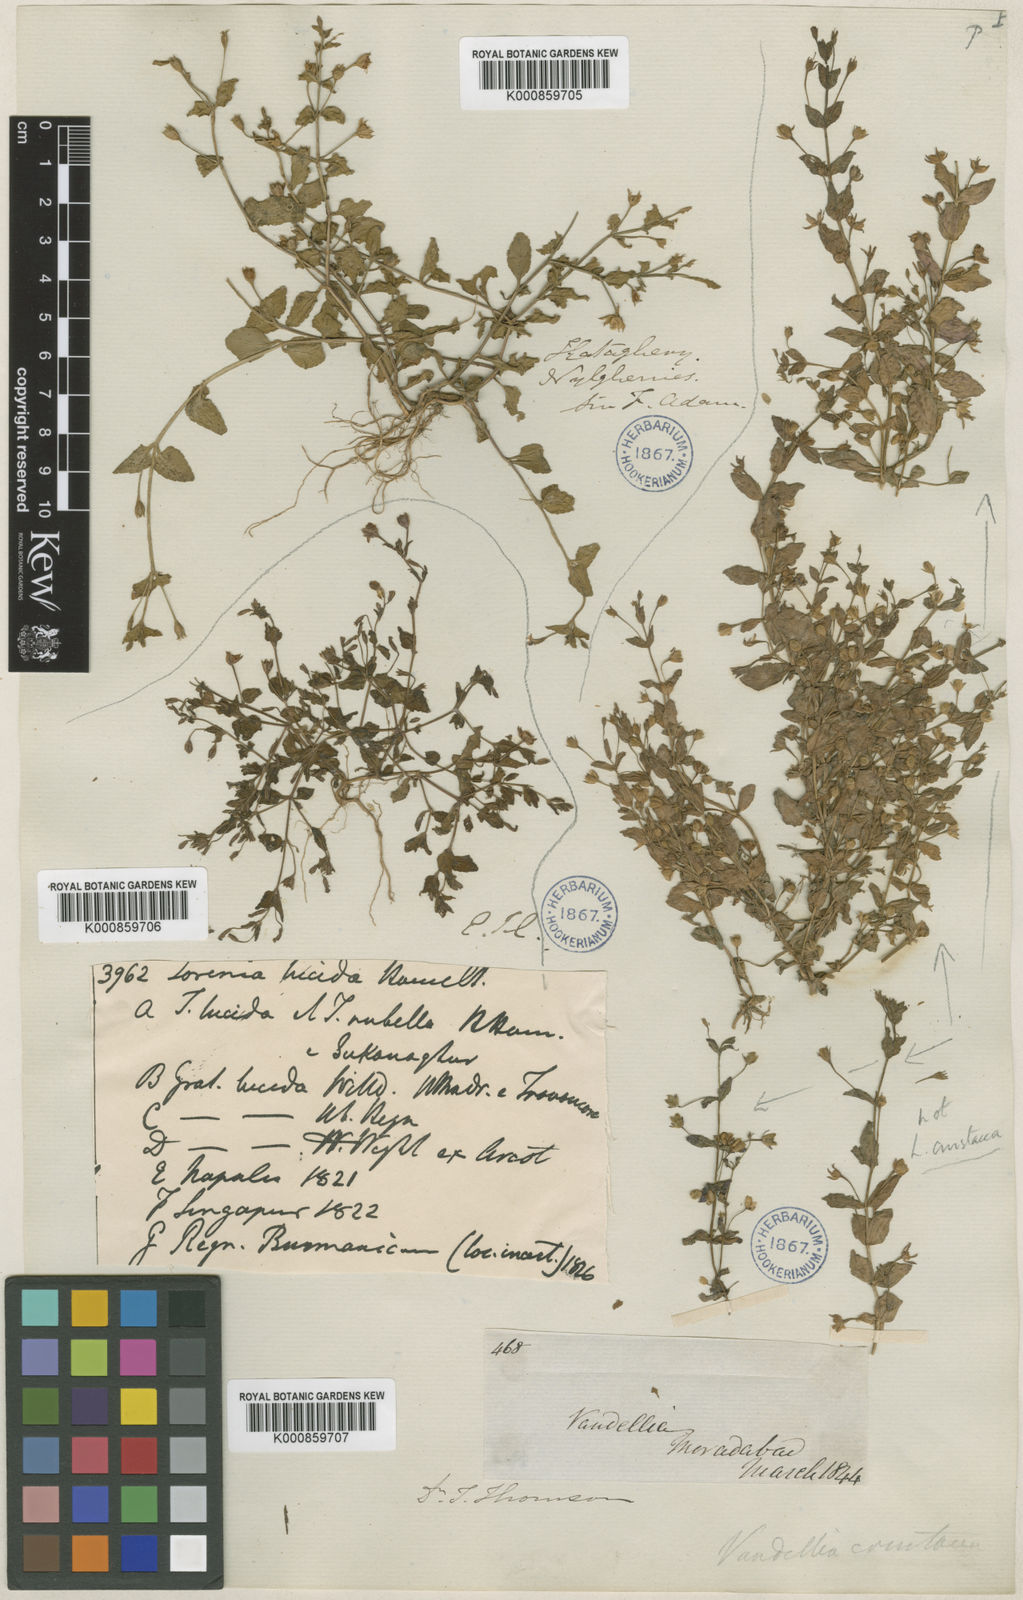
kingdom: Plantae
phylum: Tracheophyta
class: Magnoliopsida
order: Lamiales
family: Linderniaceae
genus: Torenia
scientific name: Torenia crustacea
